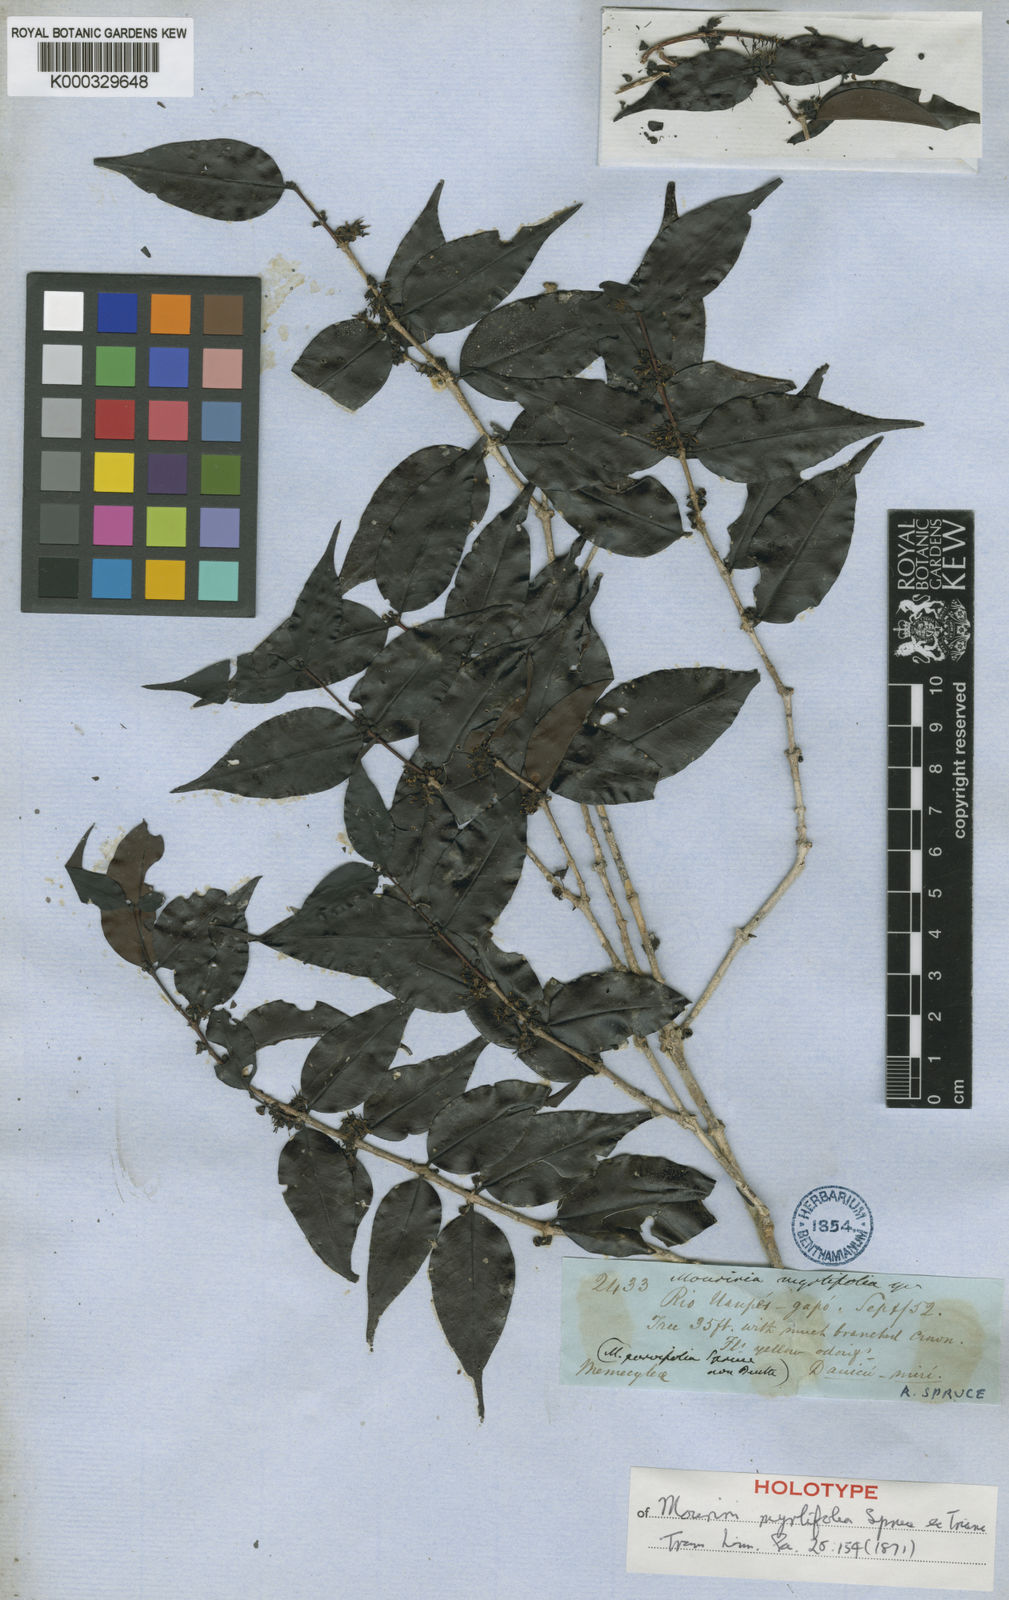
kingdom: Plantae
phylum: Tracheophyta
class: Magnoliopsida
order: Myrtales
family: Melastomataceae
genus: Mouriri
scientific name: Mouriri myrtifolia
